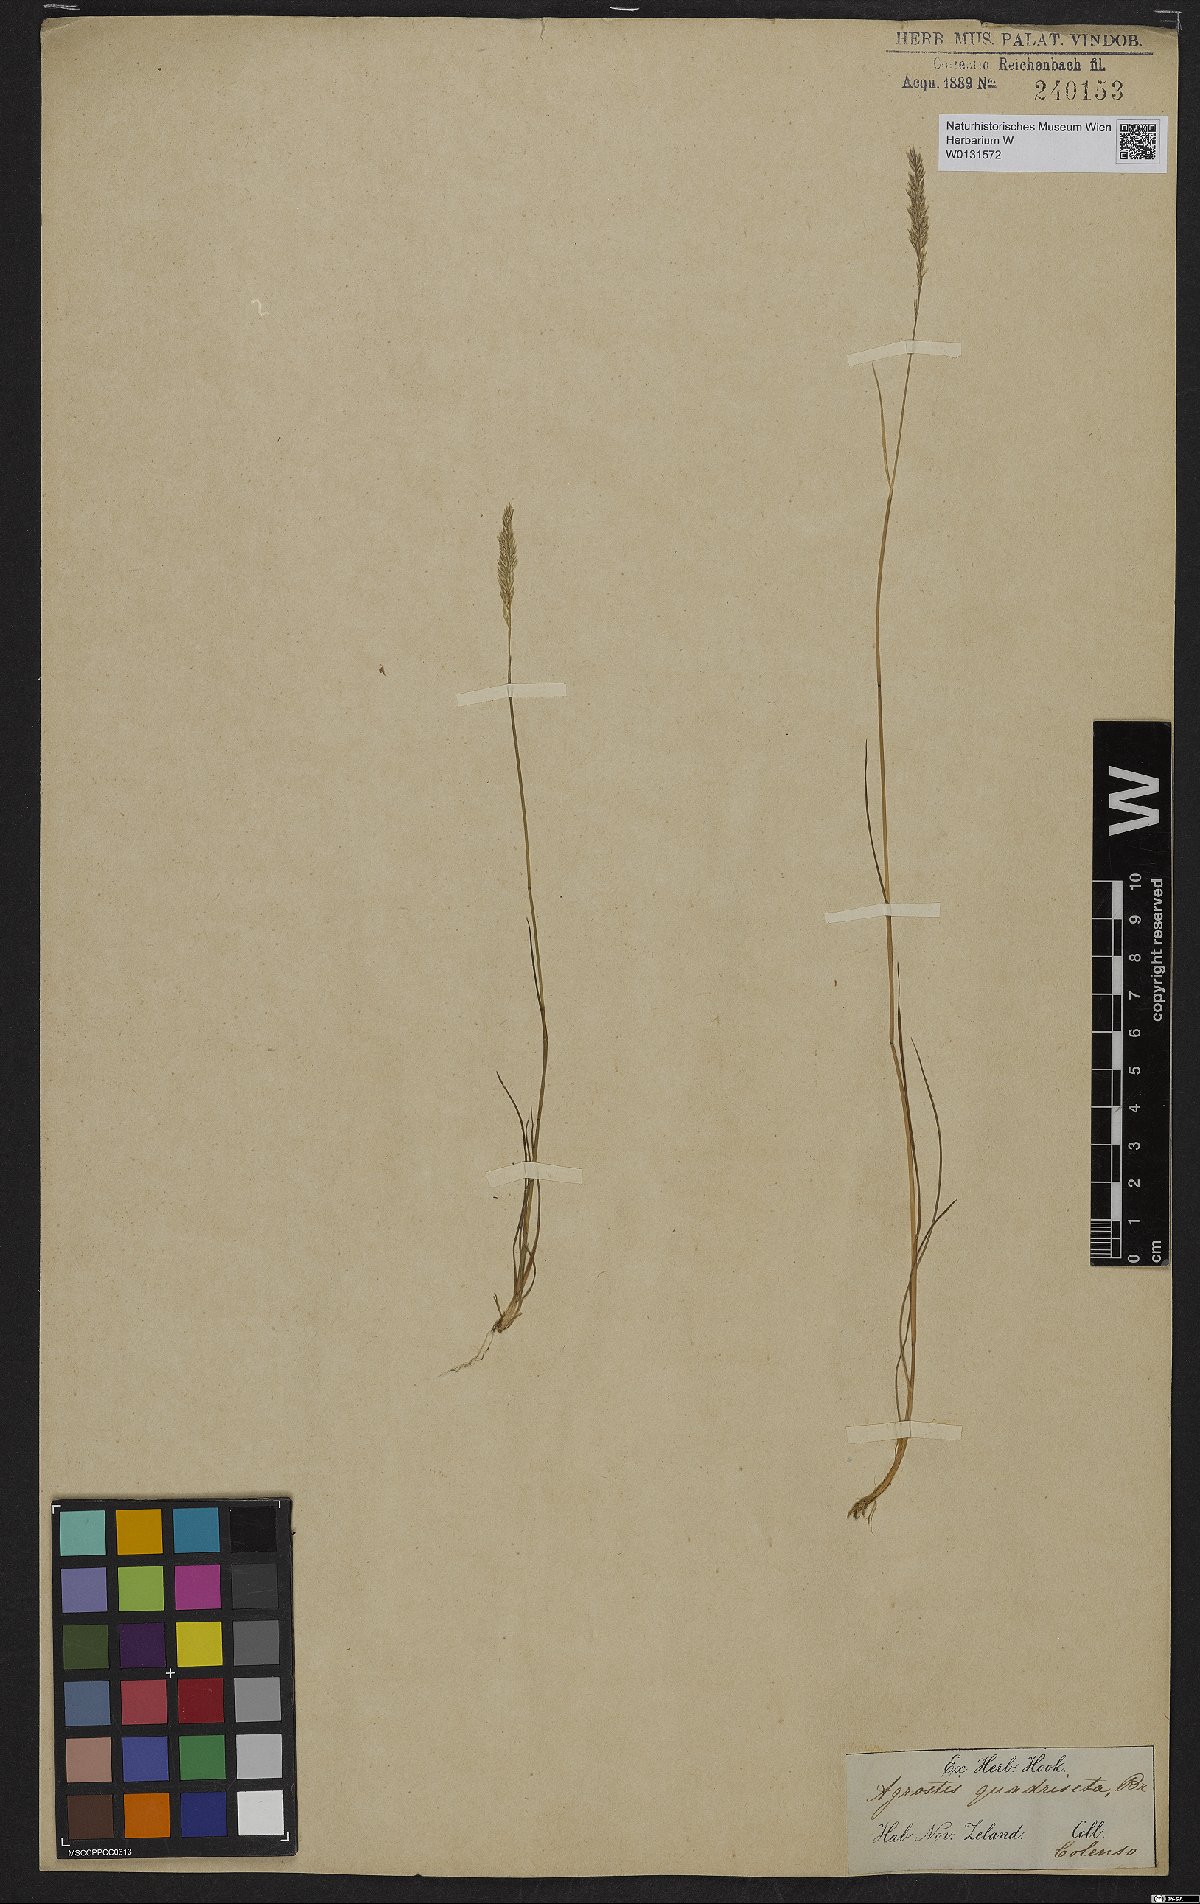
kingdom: Plantae
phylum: Tracheophyta
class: Liliopsida
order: Poales
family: Poaceae
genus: Calamagrostis
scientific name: Calamagrostis quadriseta
